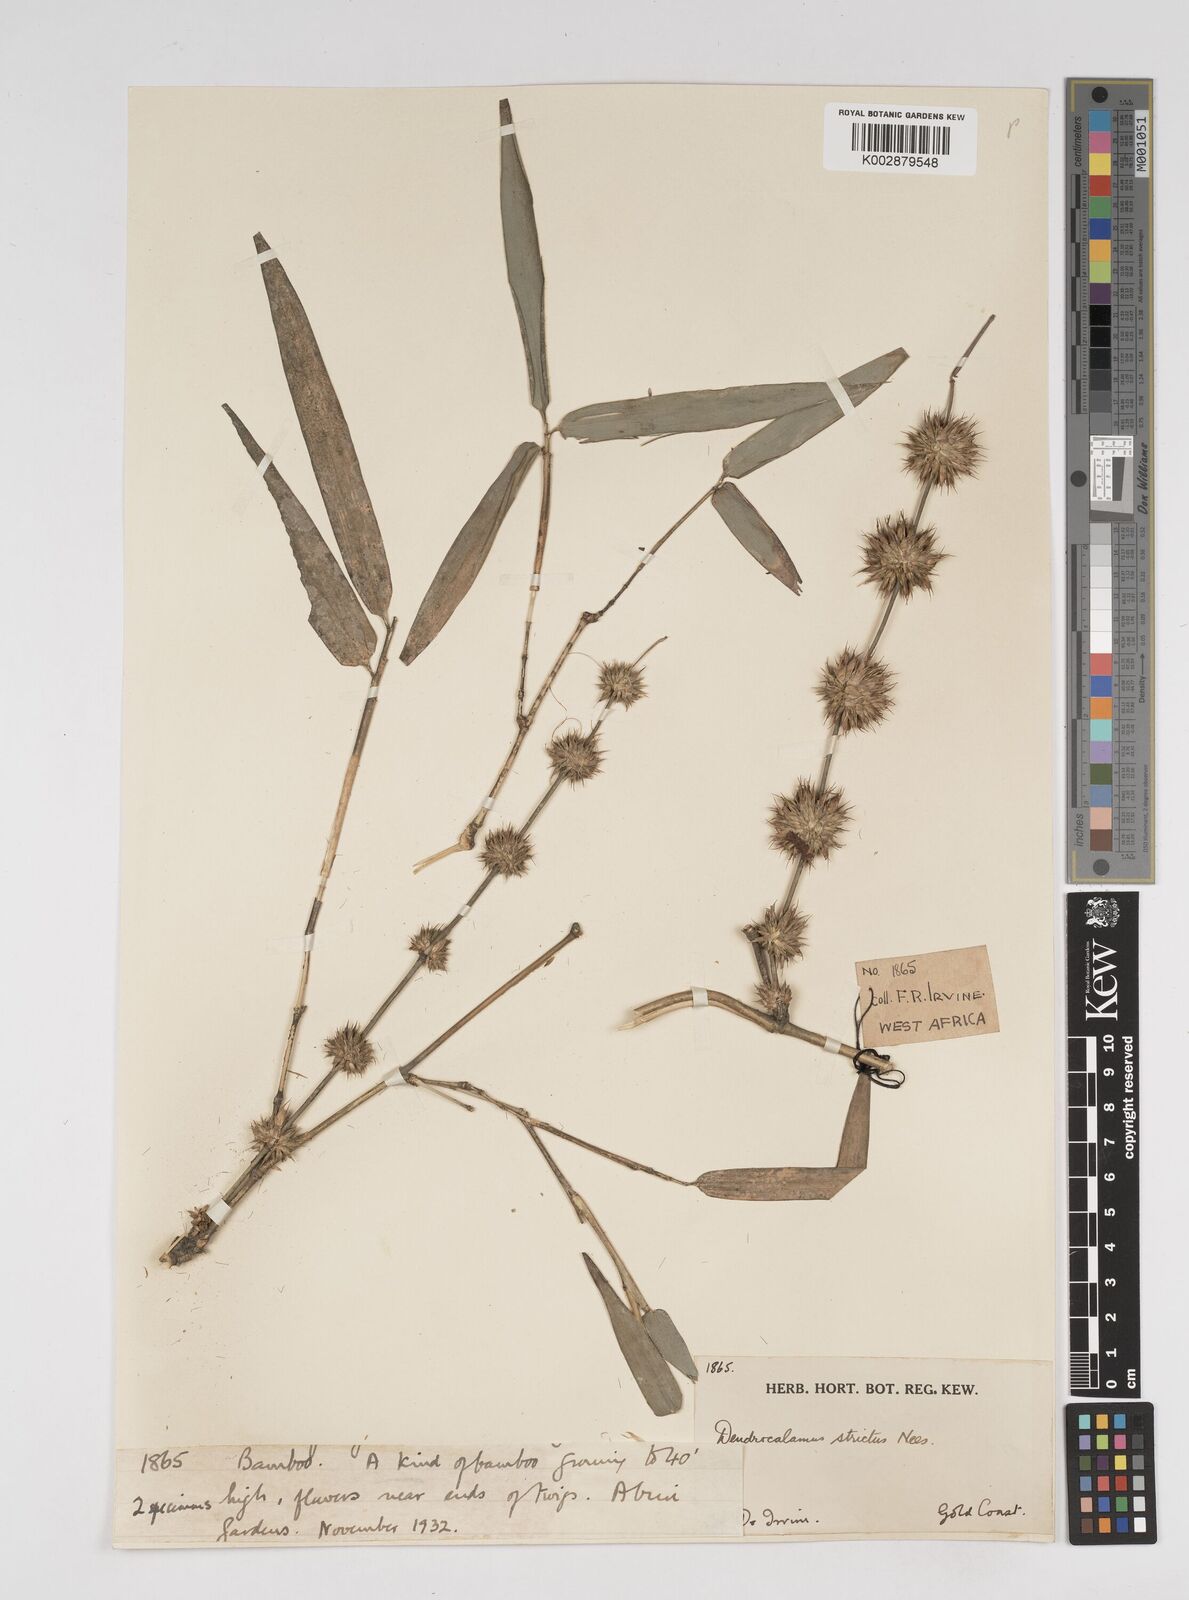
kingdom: Plantae
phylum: Tracheophyta
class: Liliopsida
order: Poales
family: Poaceae
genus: Dendrocalamus
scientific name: Dendrocalamus strictus
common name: Male bamboo
